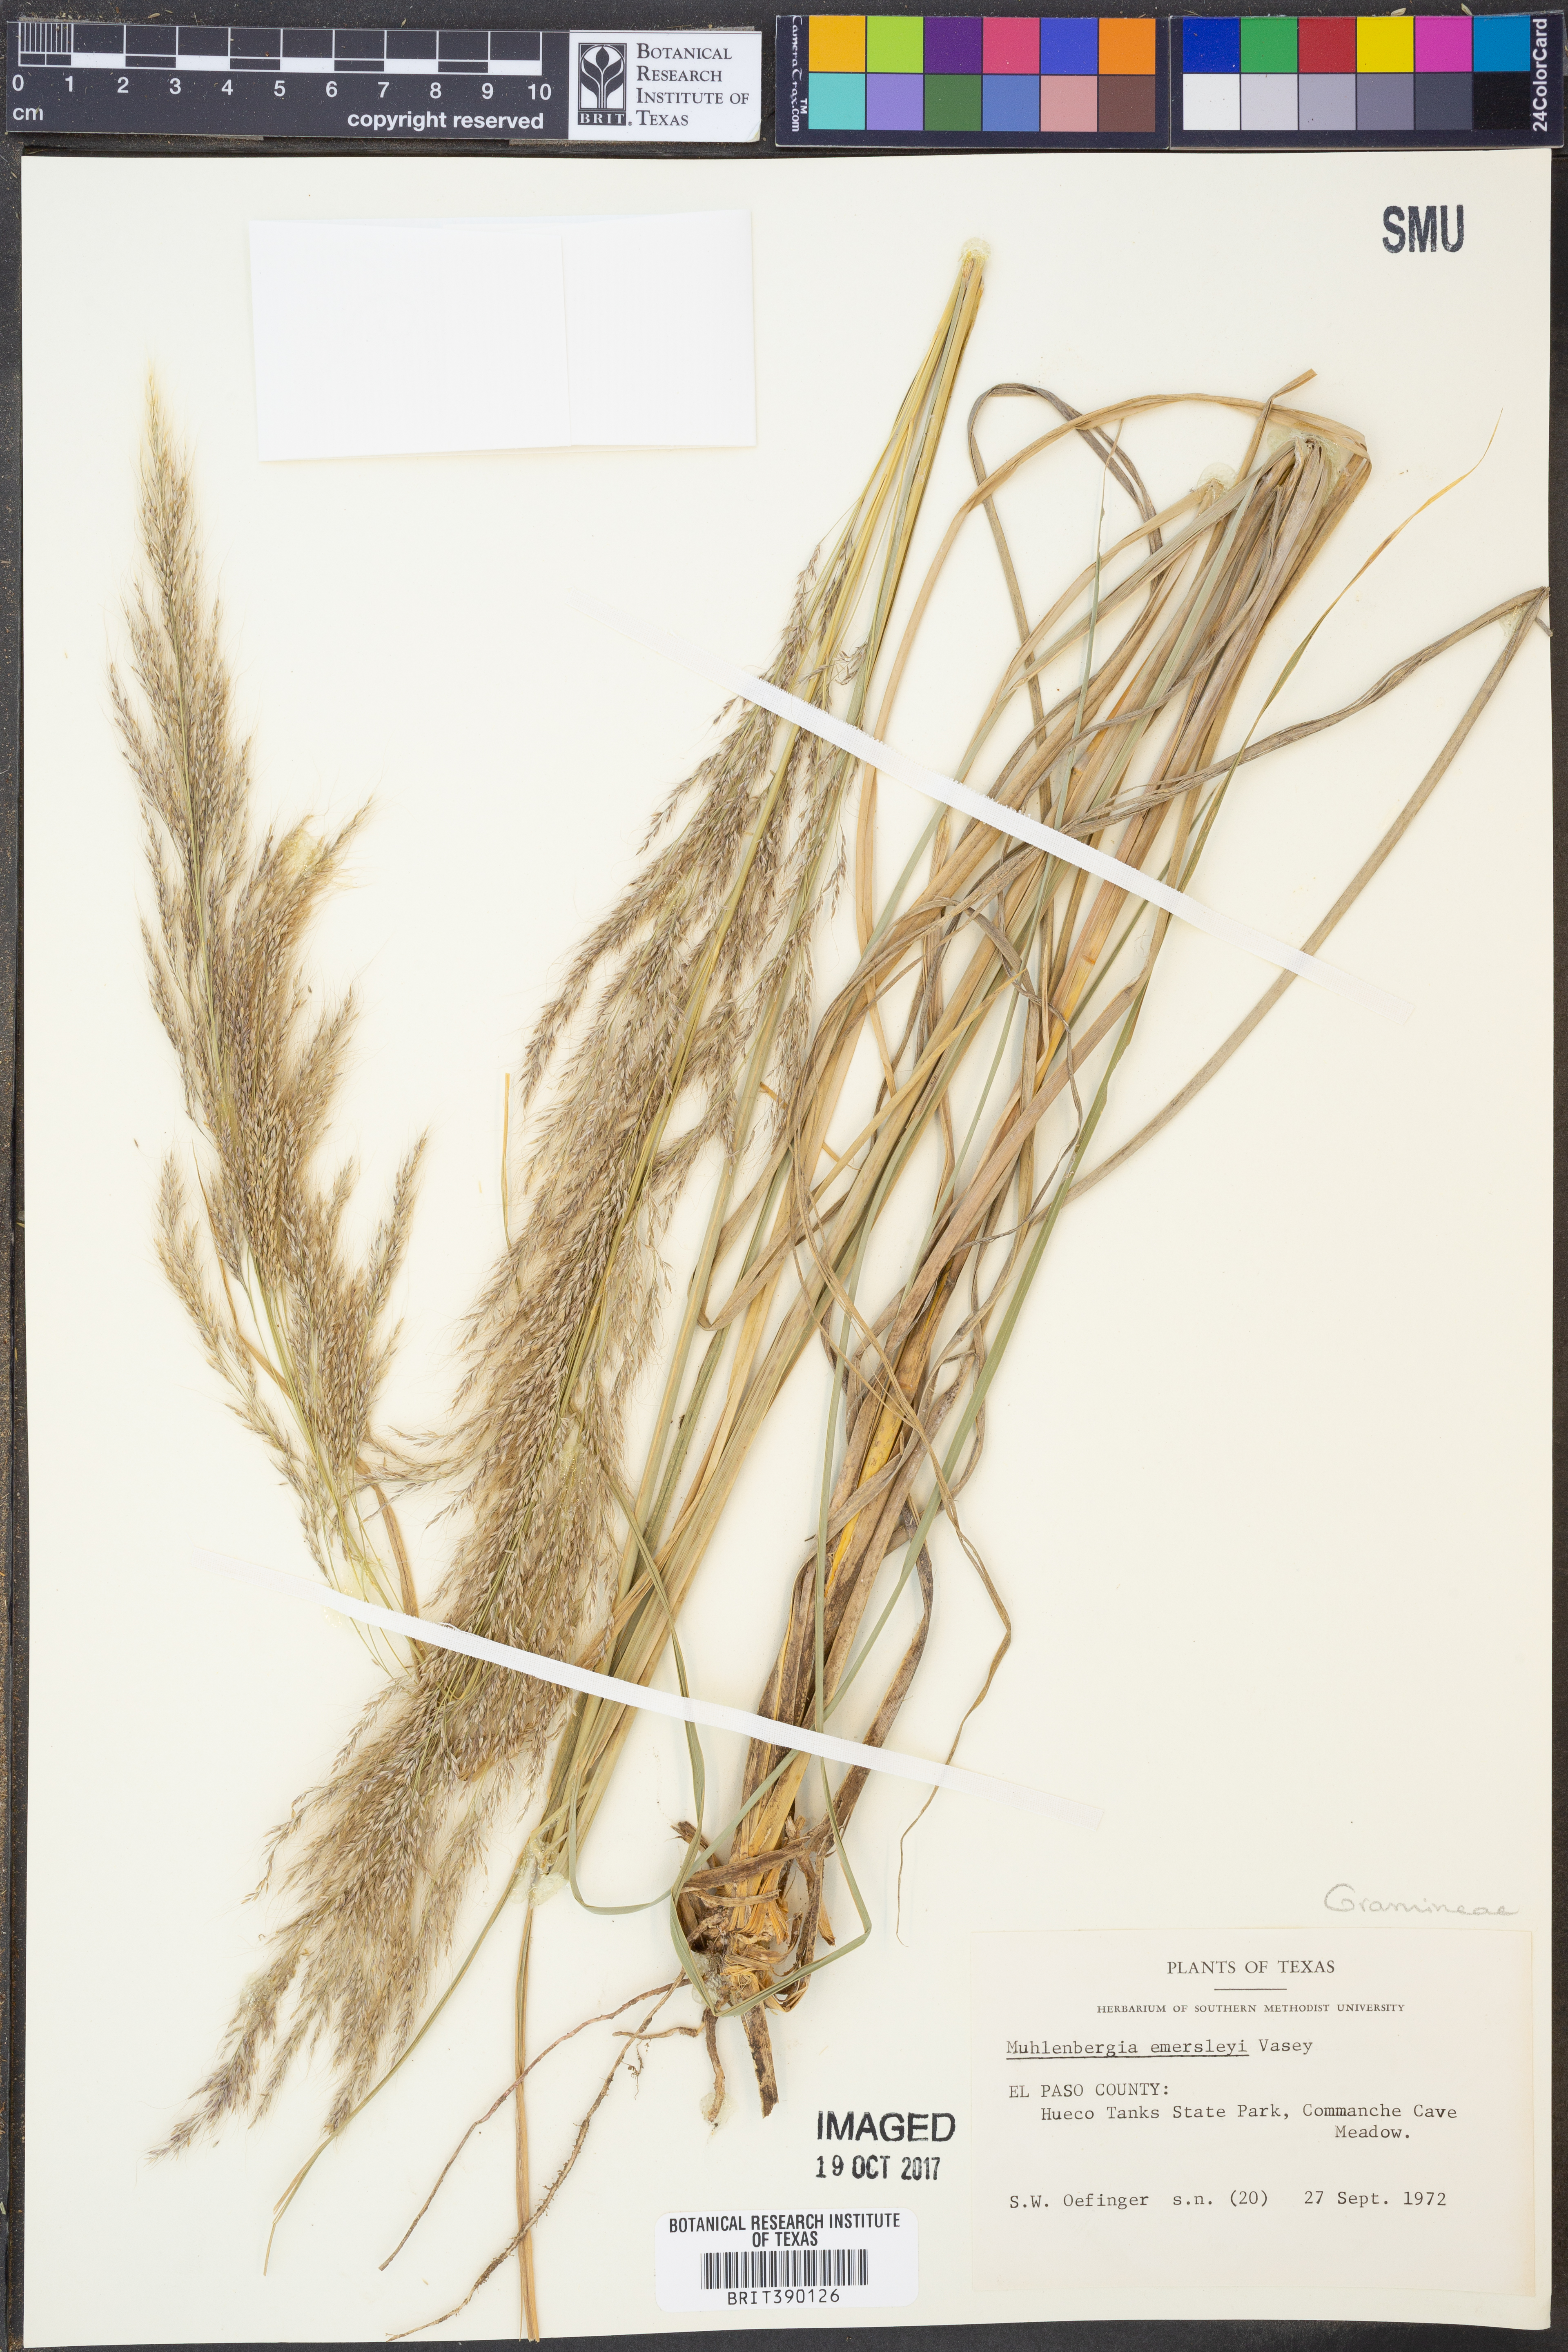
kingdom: Plantae
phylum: Tracheophyta
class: Liliopsida
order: Poales
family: Poaceae
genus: Muhlenbergia
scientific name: Muhlenbergia emersleyi
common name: Bull grass
